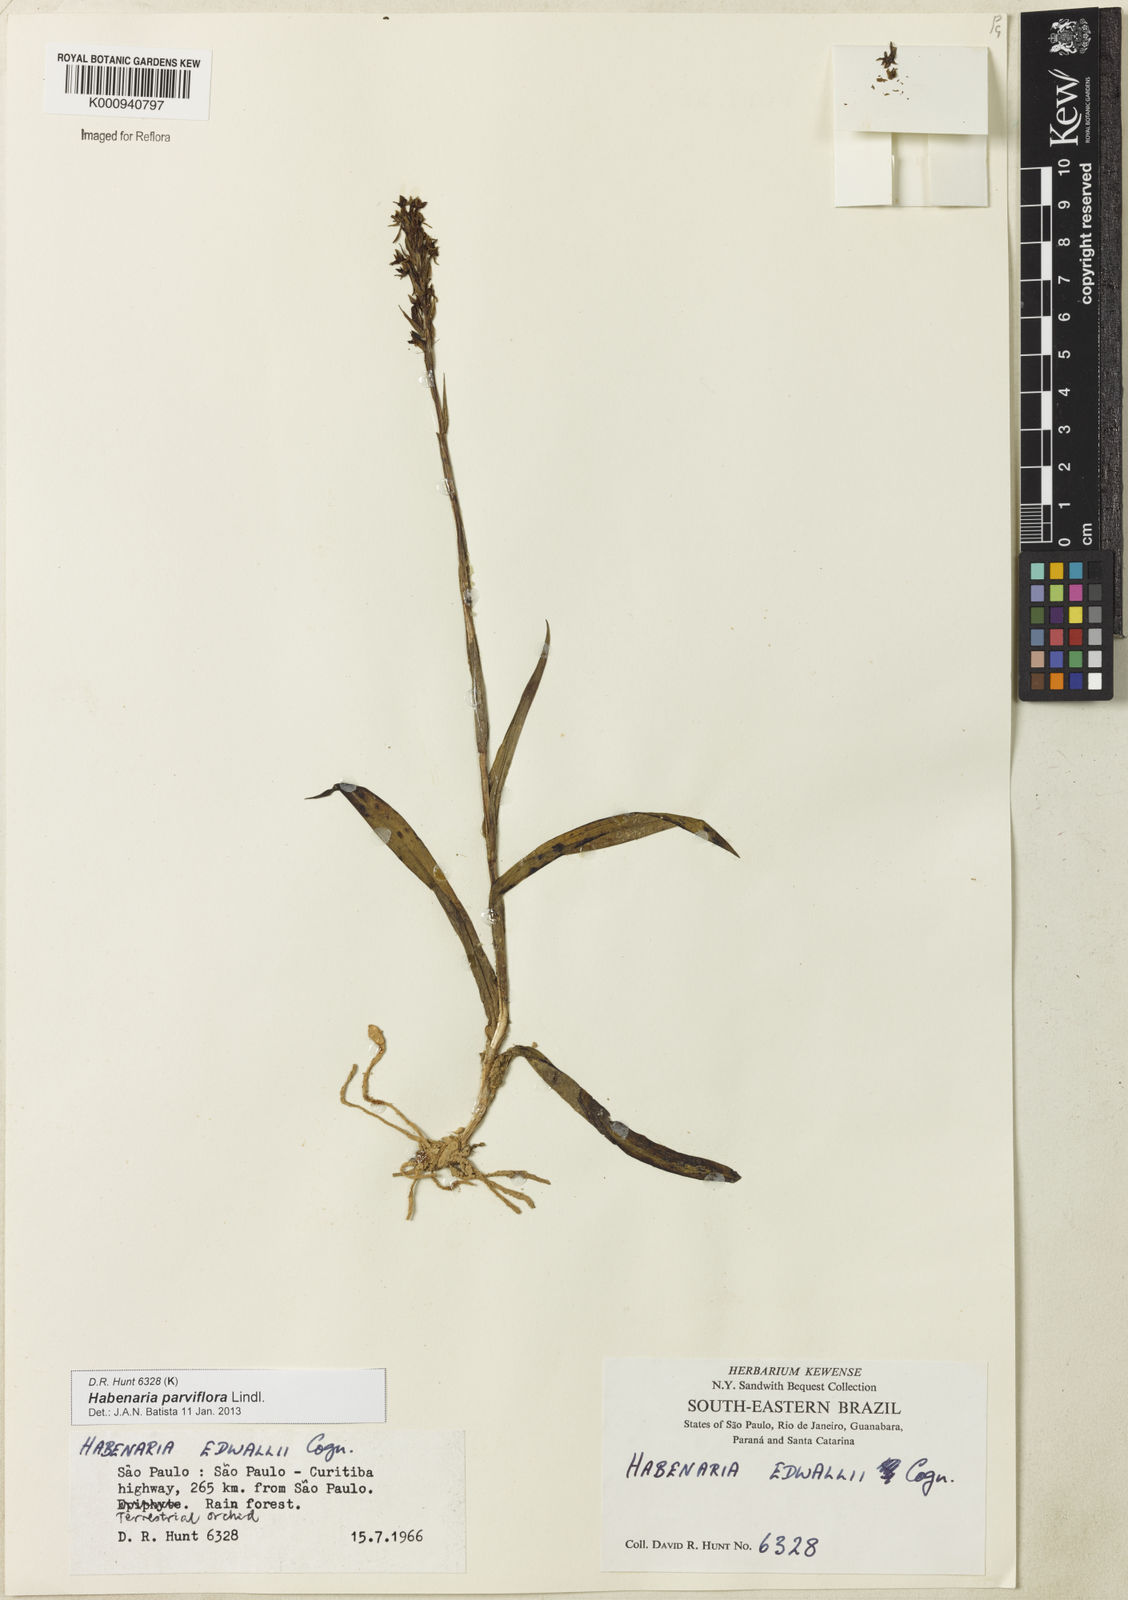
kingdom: Plantae
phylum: Tracheophyta
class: Liliopsida
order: Asparagales
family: Orchidaceae
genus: Habenaria
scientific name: Habenaria parviflora
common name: Small flowered habenaria
